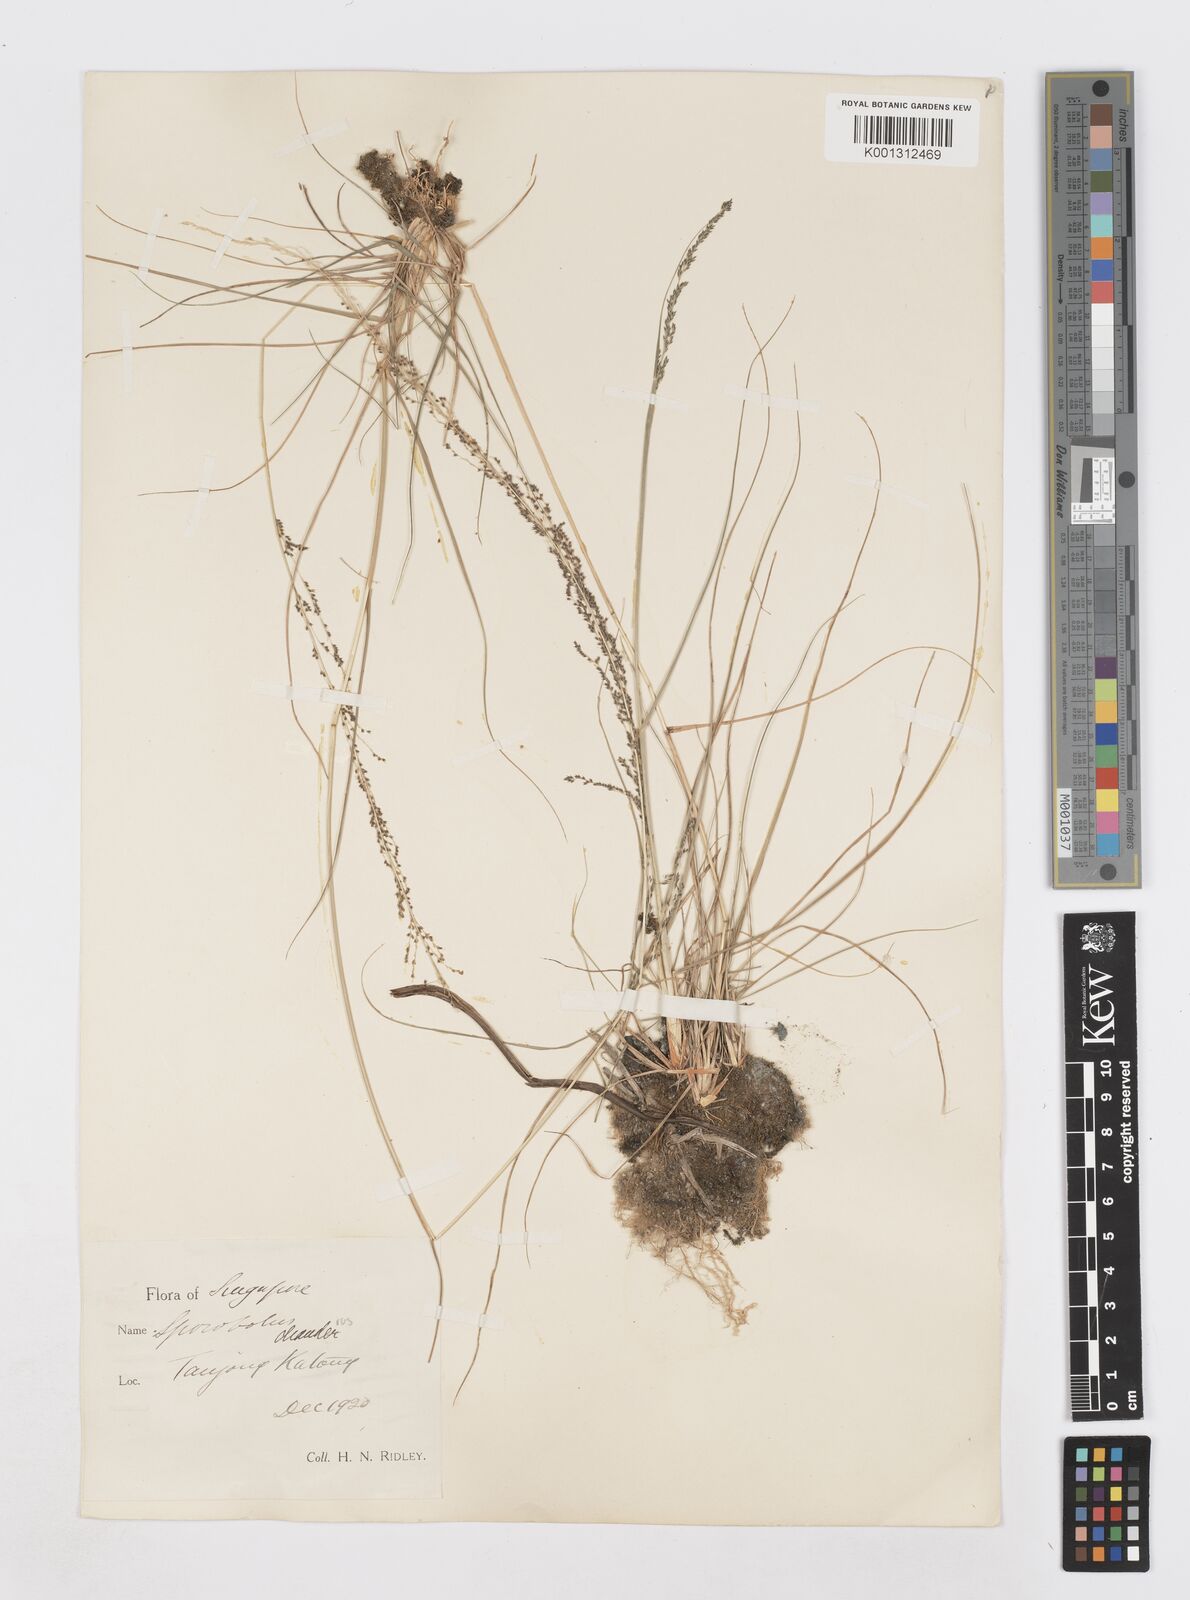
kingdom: Plantae
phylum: Tracheophyta
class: Liliopsida
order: Poales
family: Poaceae
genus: Sporobolus
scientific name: Sporobolus diandrus
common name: Tussock dropseed
